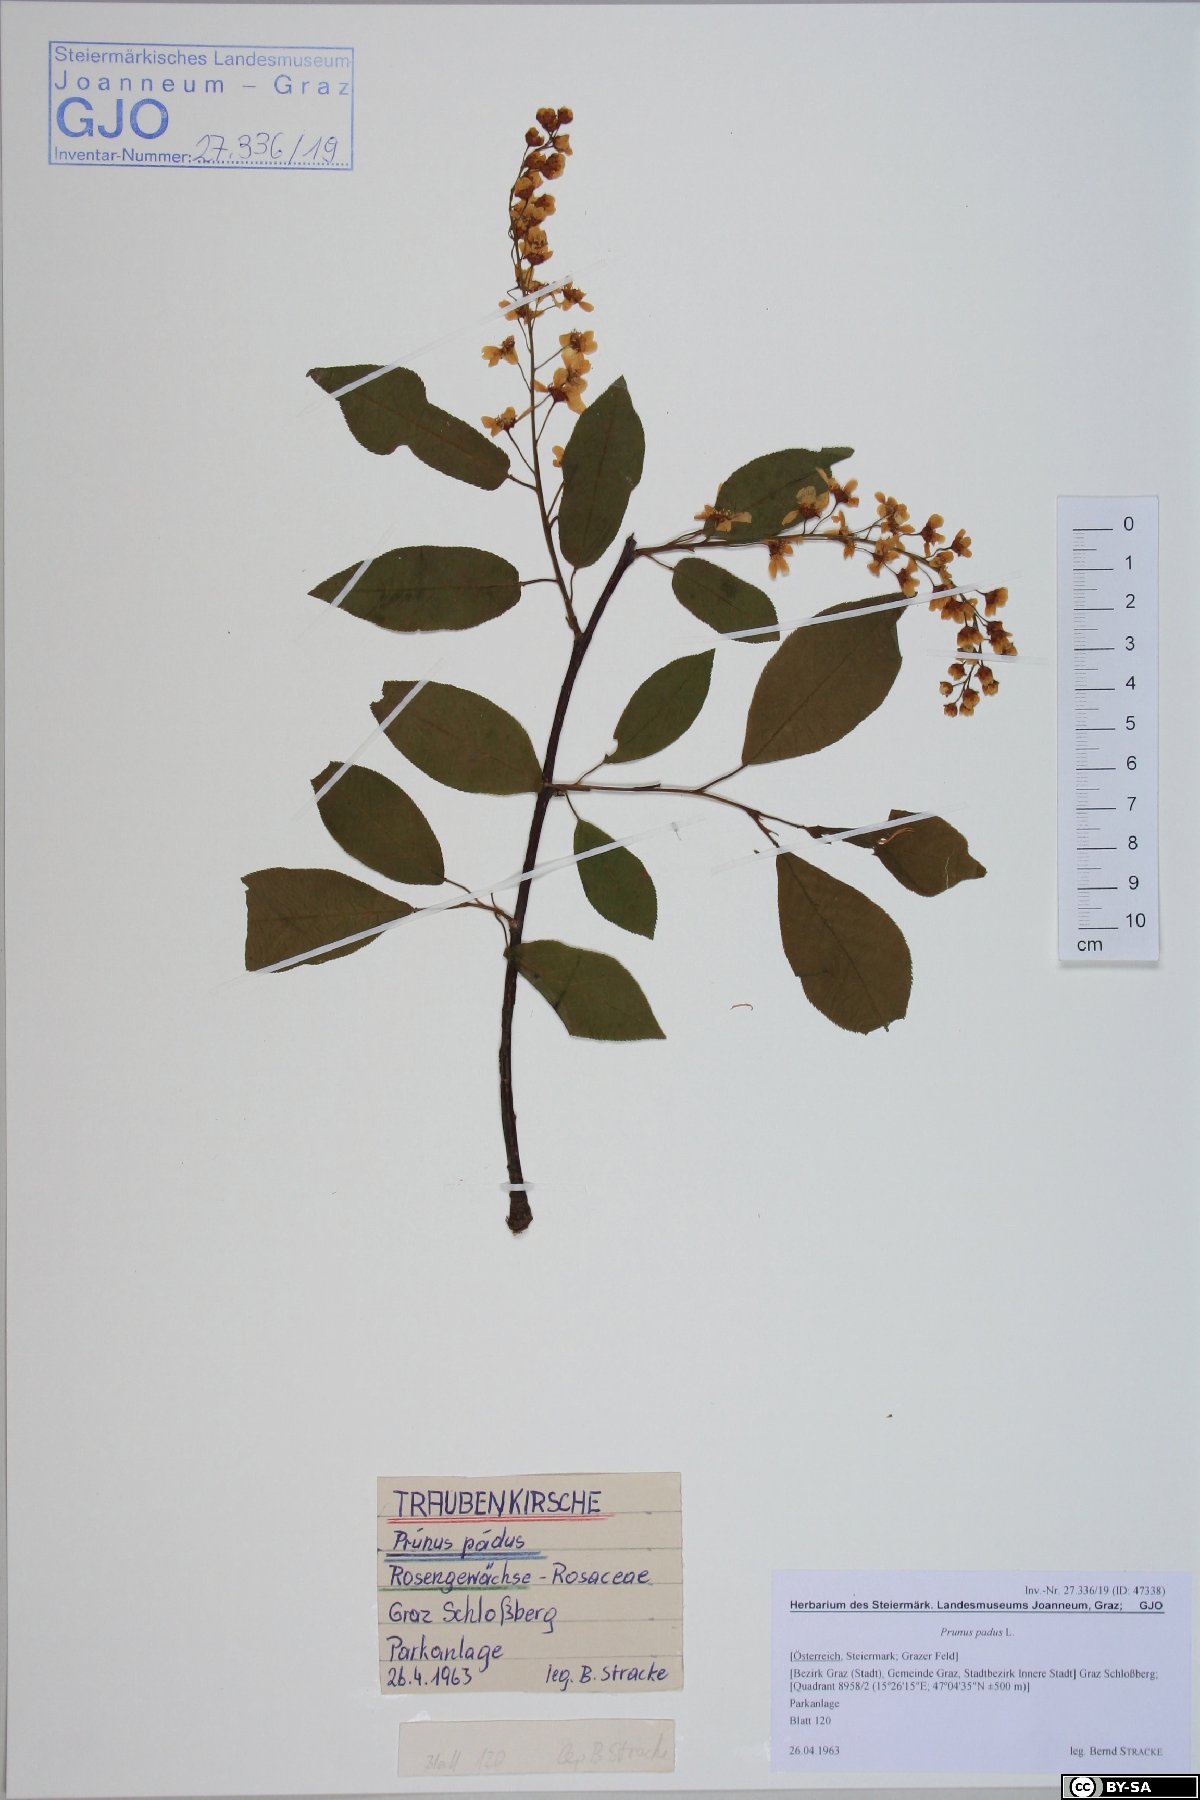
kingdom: Plantae
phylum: Tracheophyta
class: Magnoliopsida
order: Rosales
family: Rosaceae
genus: Prunus
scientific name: Prunus padus
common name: Bird cherry
